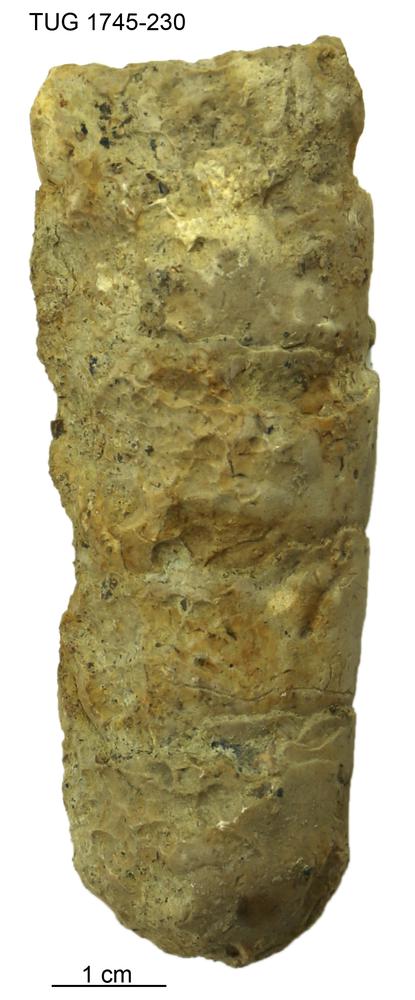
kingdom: Animalia
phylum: Mollusca
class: Cephalopoda
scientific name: Cephalopoda
